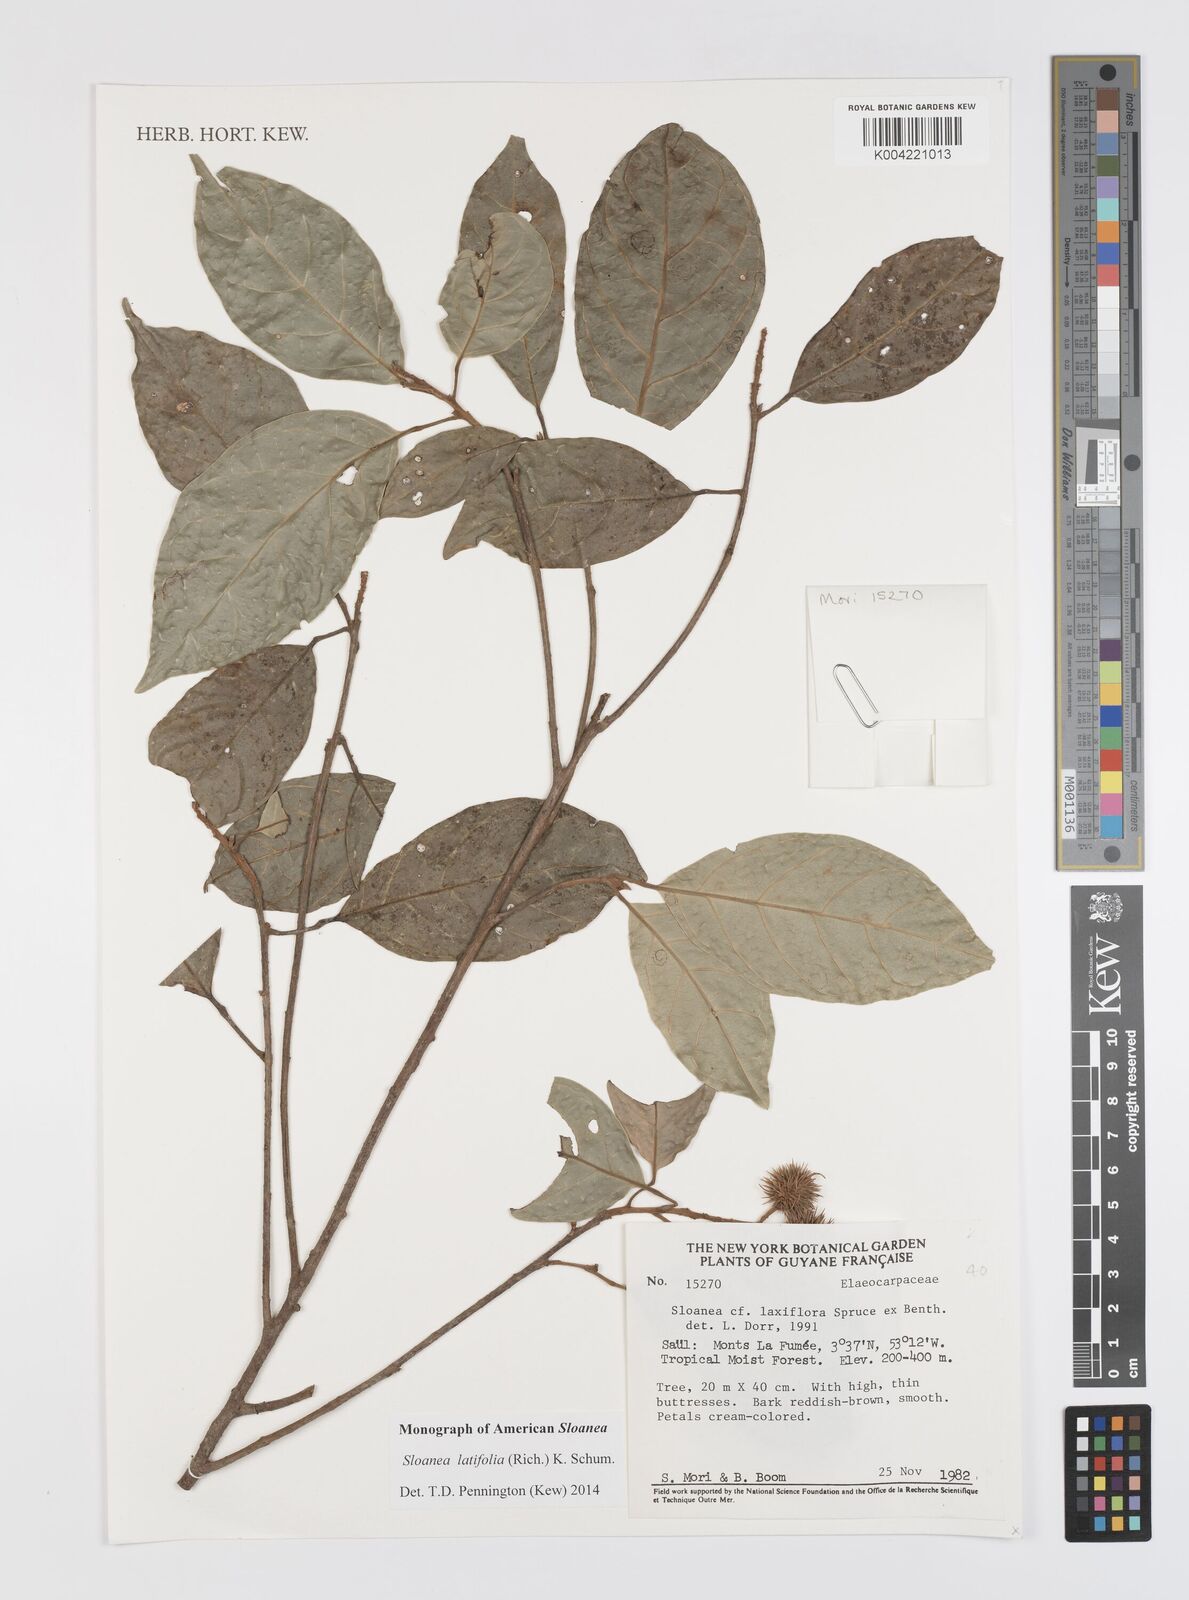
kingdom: Plantae
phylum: Tracheophyta
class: Magnoliopsida
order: Oxalidales
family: Elaeocarpaceae
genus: Sloanea
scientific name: Sloanea latifolia
